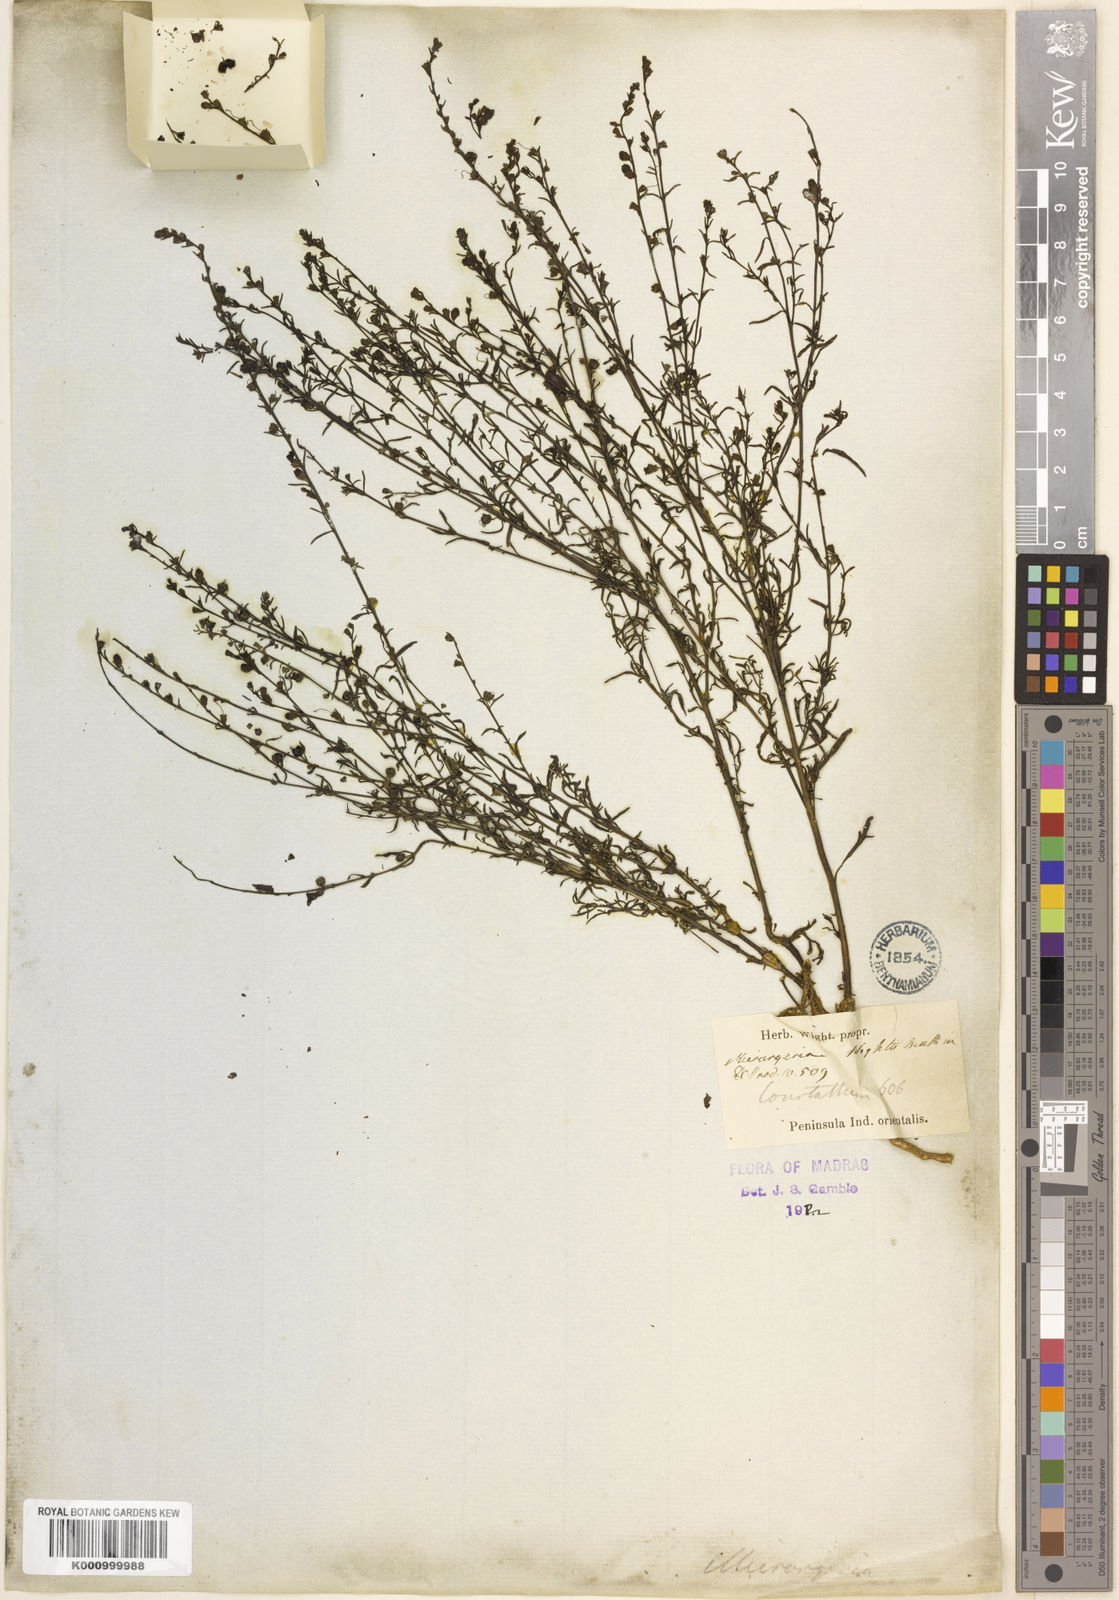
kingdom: Plantae
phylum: Tracheophyta
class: Magnoliopsida
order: Lamiales
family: Orobanchaceae
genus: Micrargeria
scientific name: Micrargeria wightii
